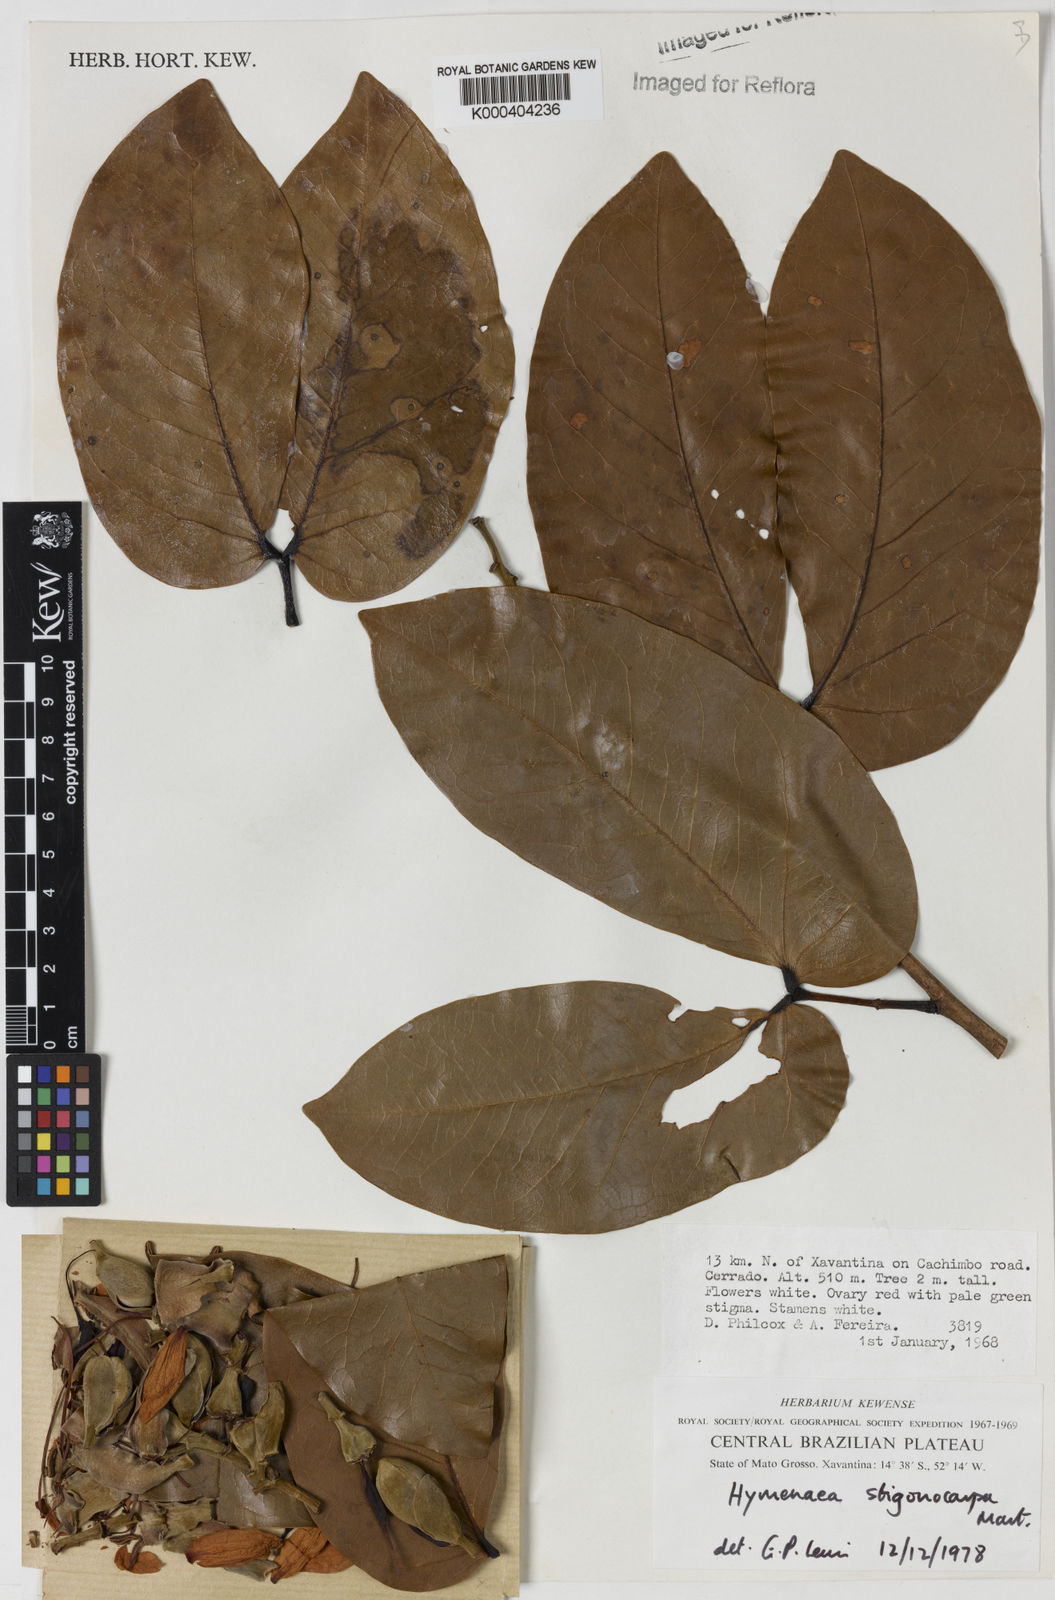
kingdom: Plantae
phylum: Tracheophyta
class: Magnoliopsida
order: Fabales
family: Fabaceae
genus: Hymenaea
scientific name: Hymenaea stigonocarpa
